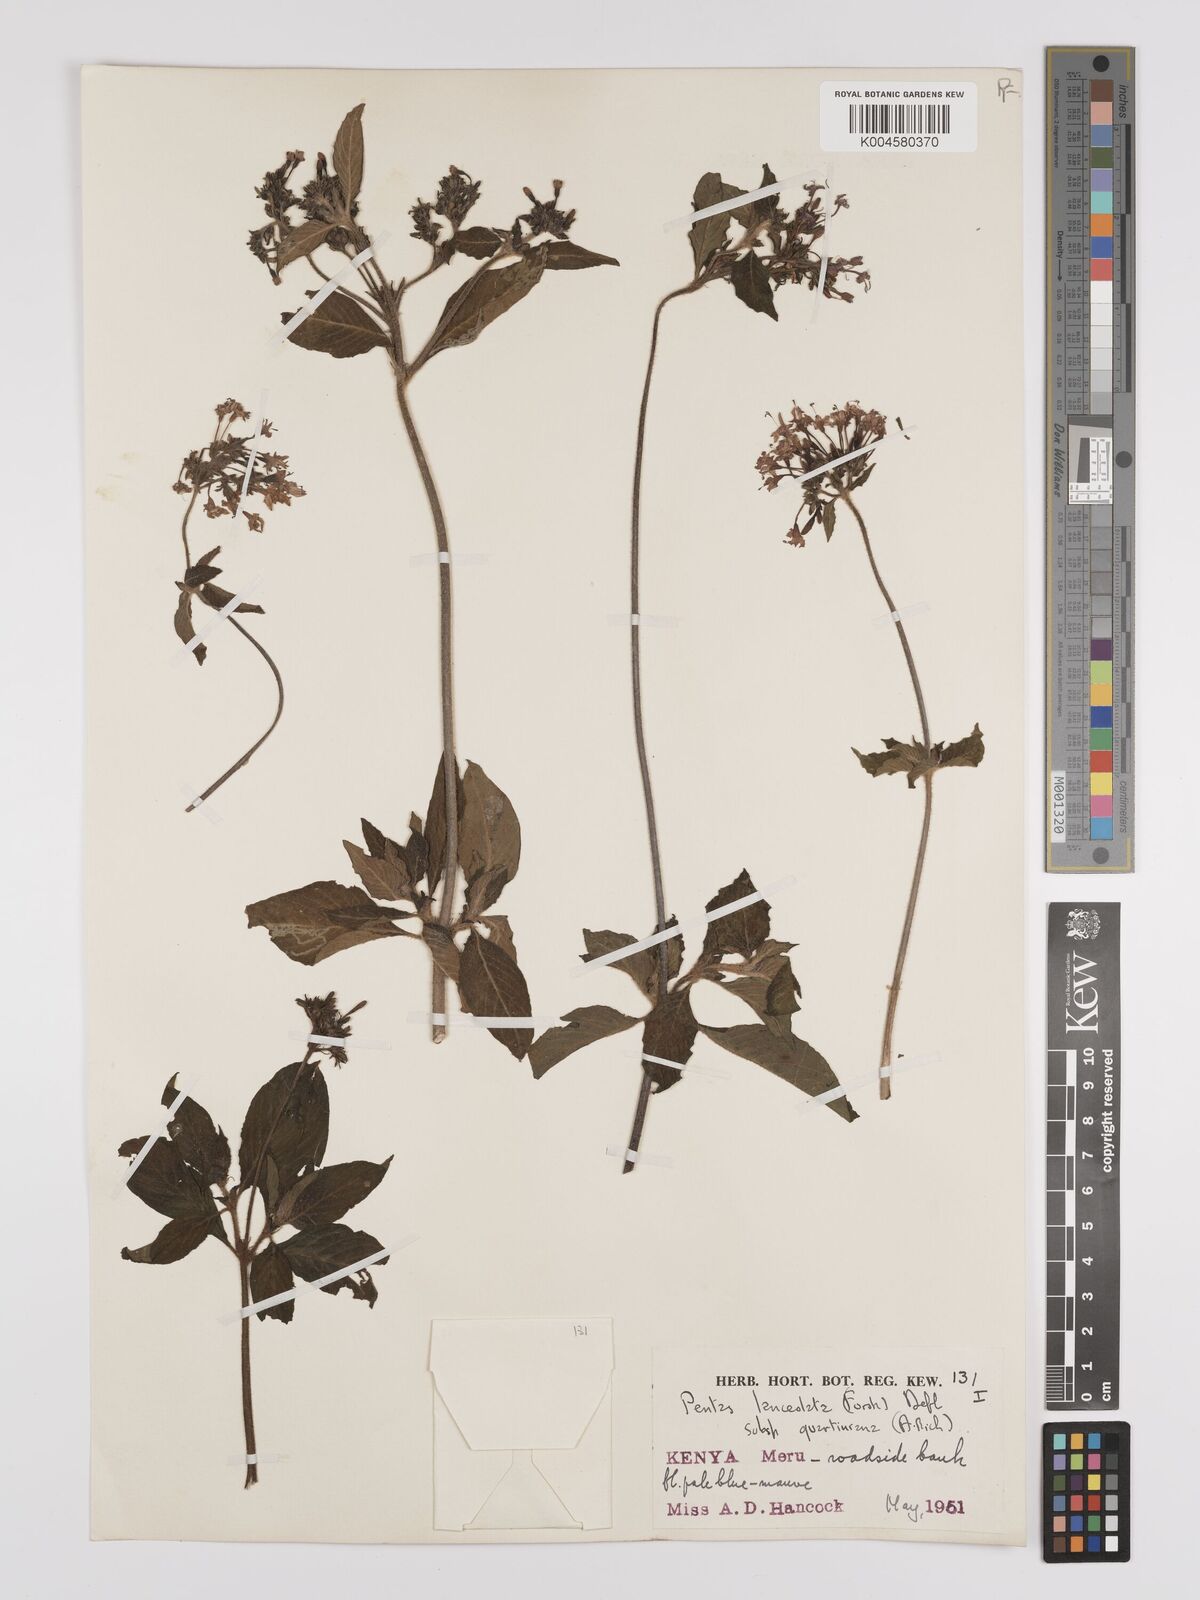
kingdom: Plantae
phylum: Tracheophyta
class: Magnoliopsida
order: Gentianales
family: Rubiaceae
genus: Pentas
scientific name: Pentas lanceolata
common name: Egyptian starcluster
